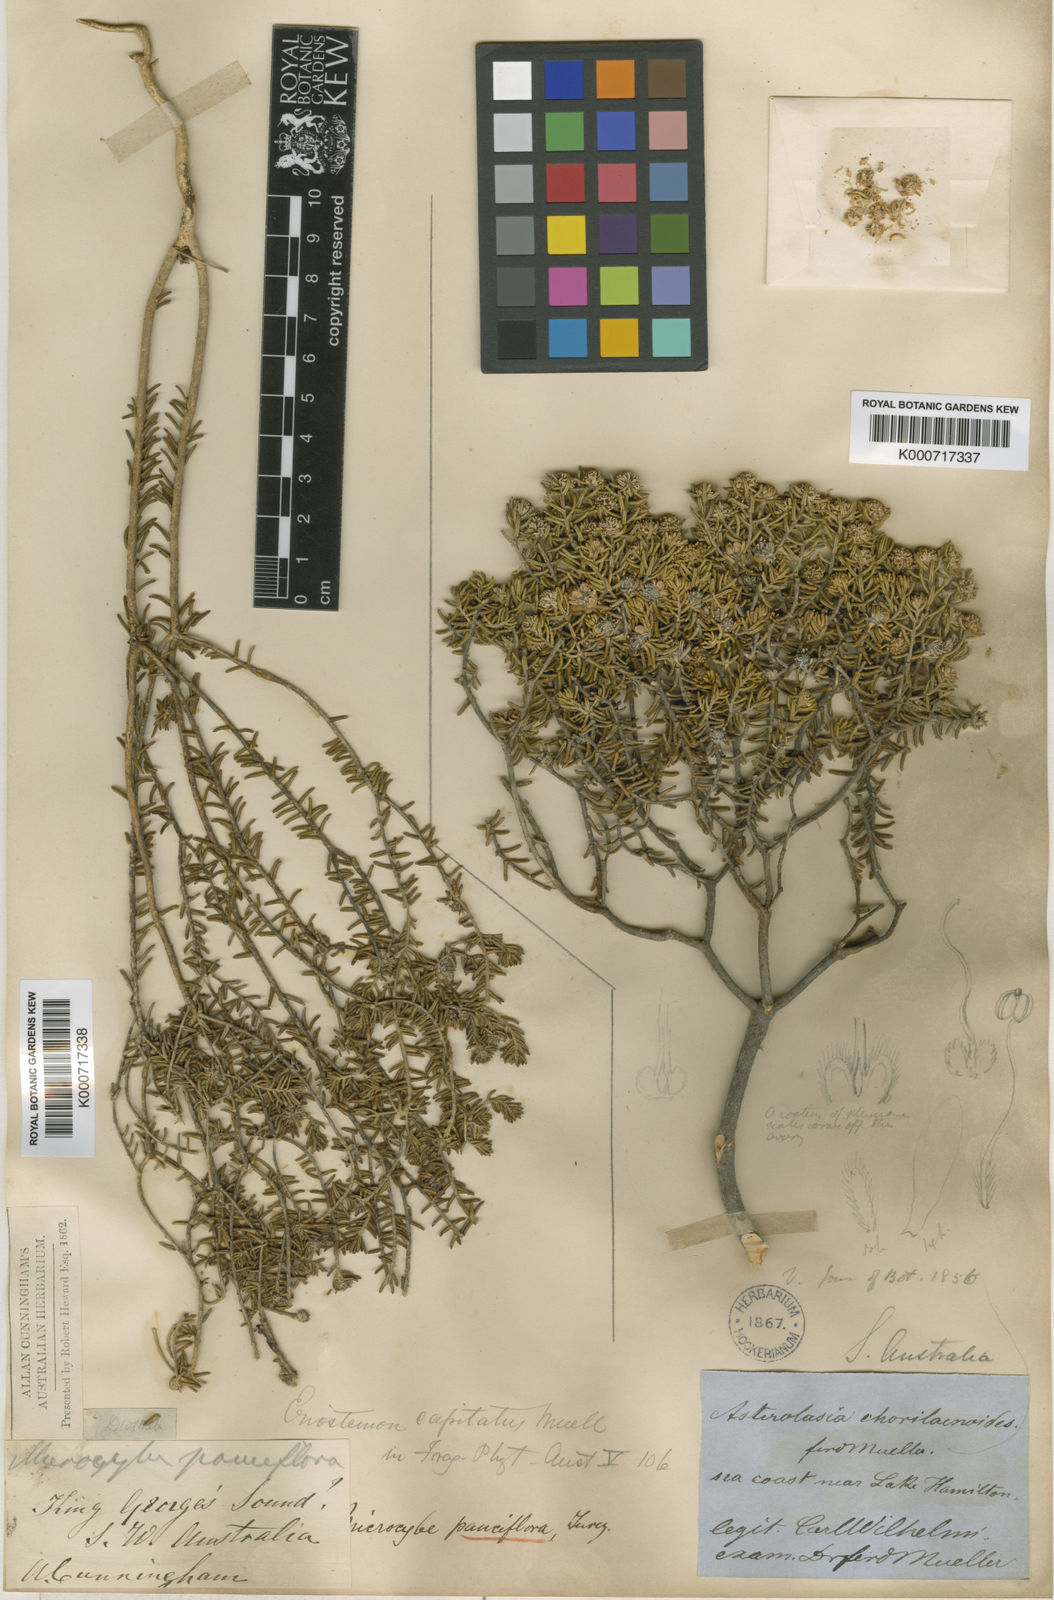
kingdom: Plantae
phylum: Tracheophyta
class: Magnoliopsida
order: Sapindales
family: Rutaceae
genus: Microcybe
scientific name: Microcybe pauciflora
